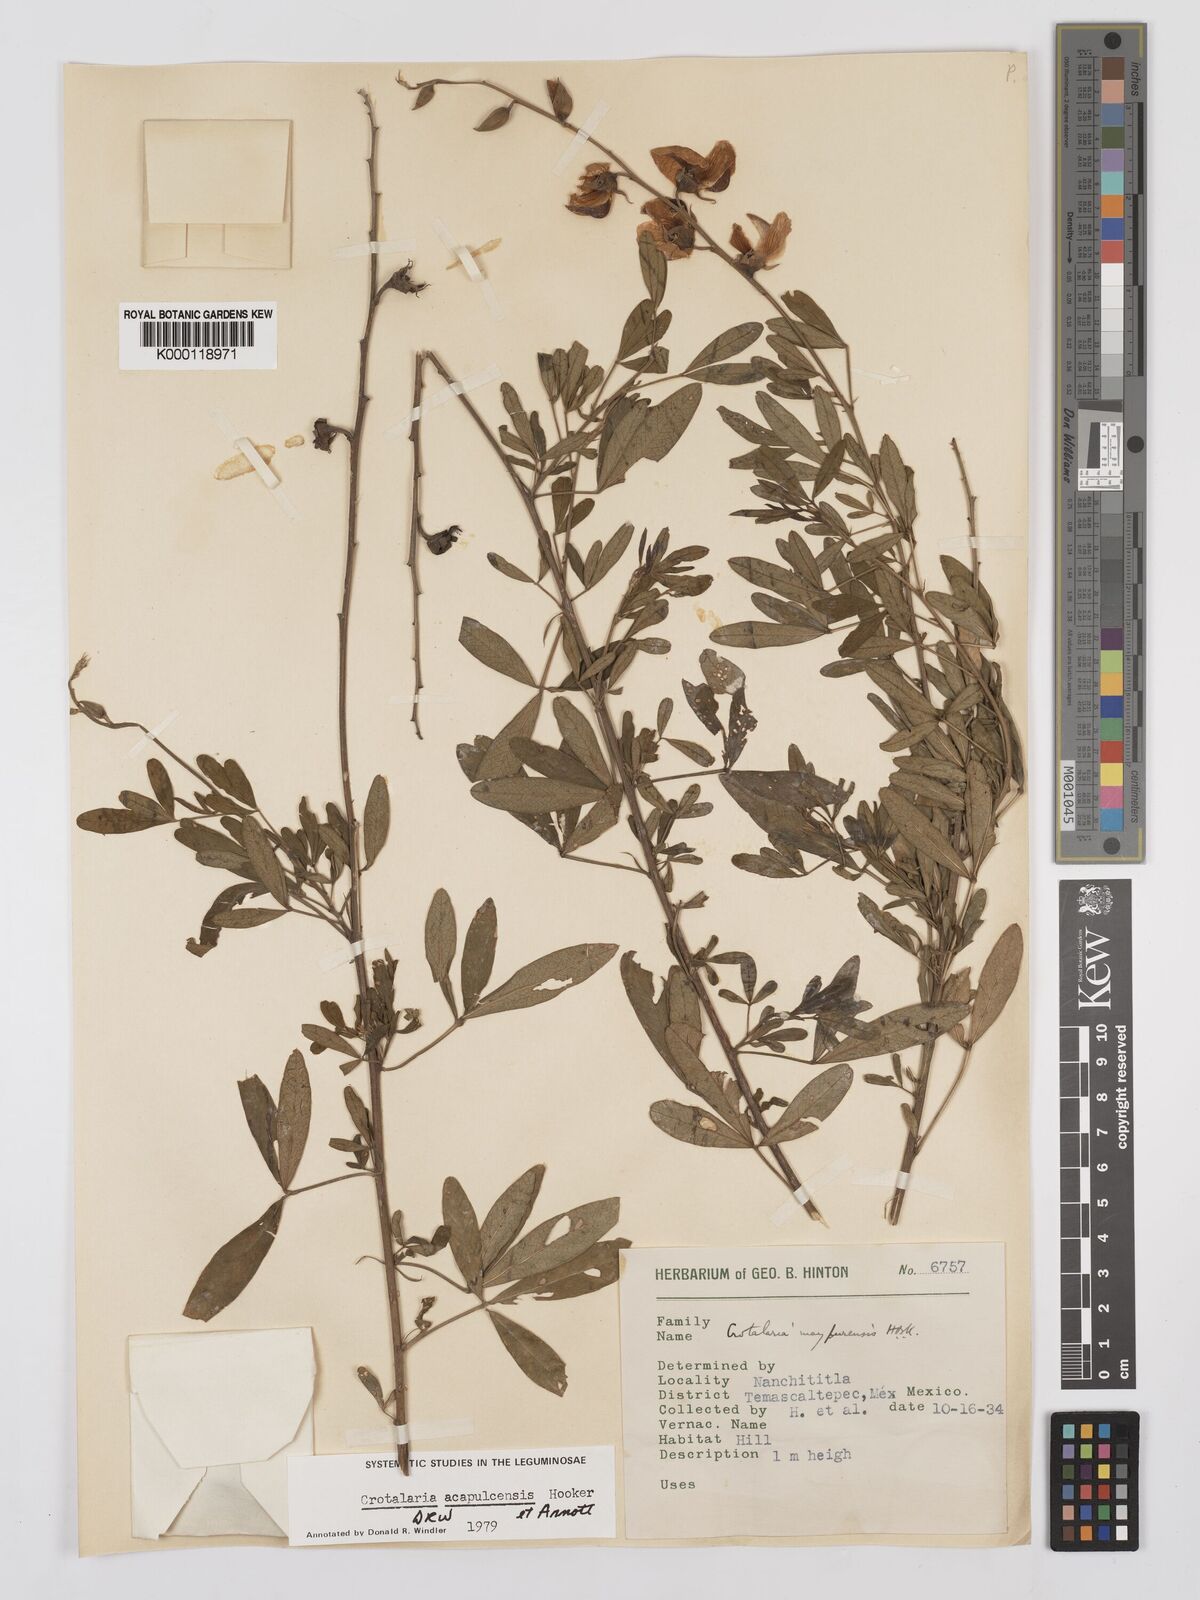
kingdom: Plantae
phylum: Tracheophyta
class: Magnoliopsida
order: Fabales
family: Fabaceae
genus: Crotalaria
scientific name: Crotalaria maypurensis
